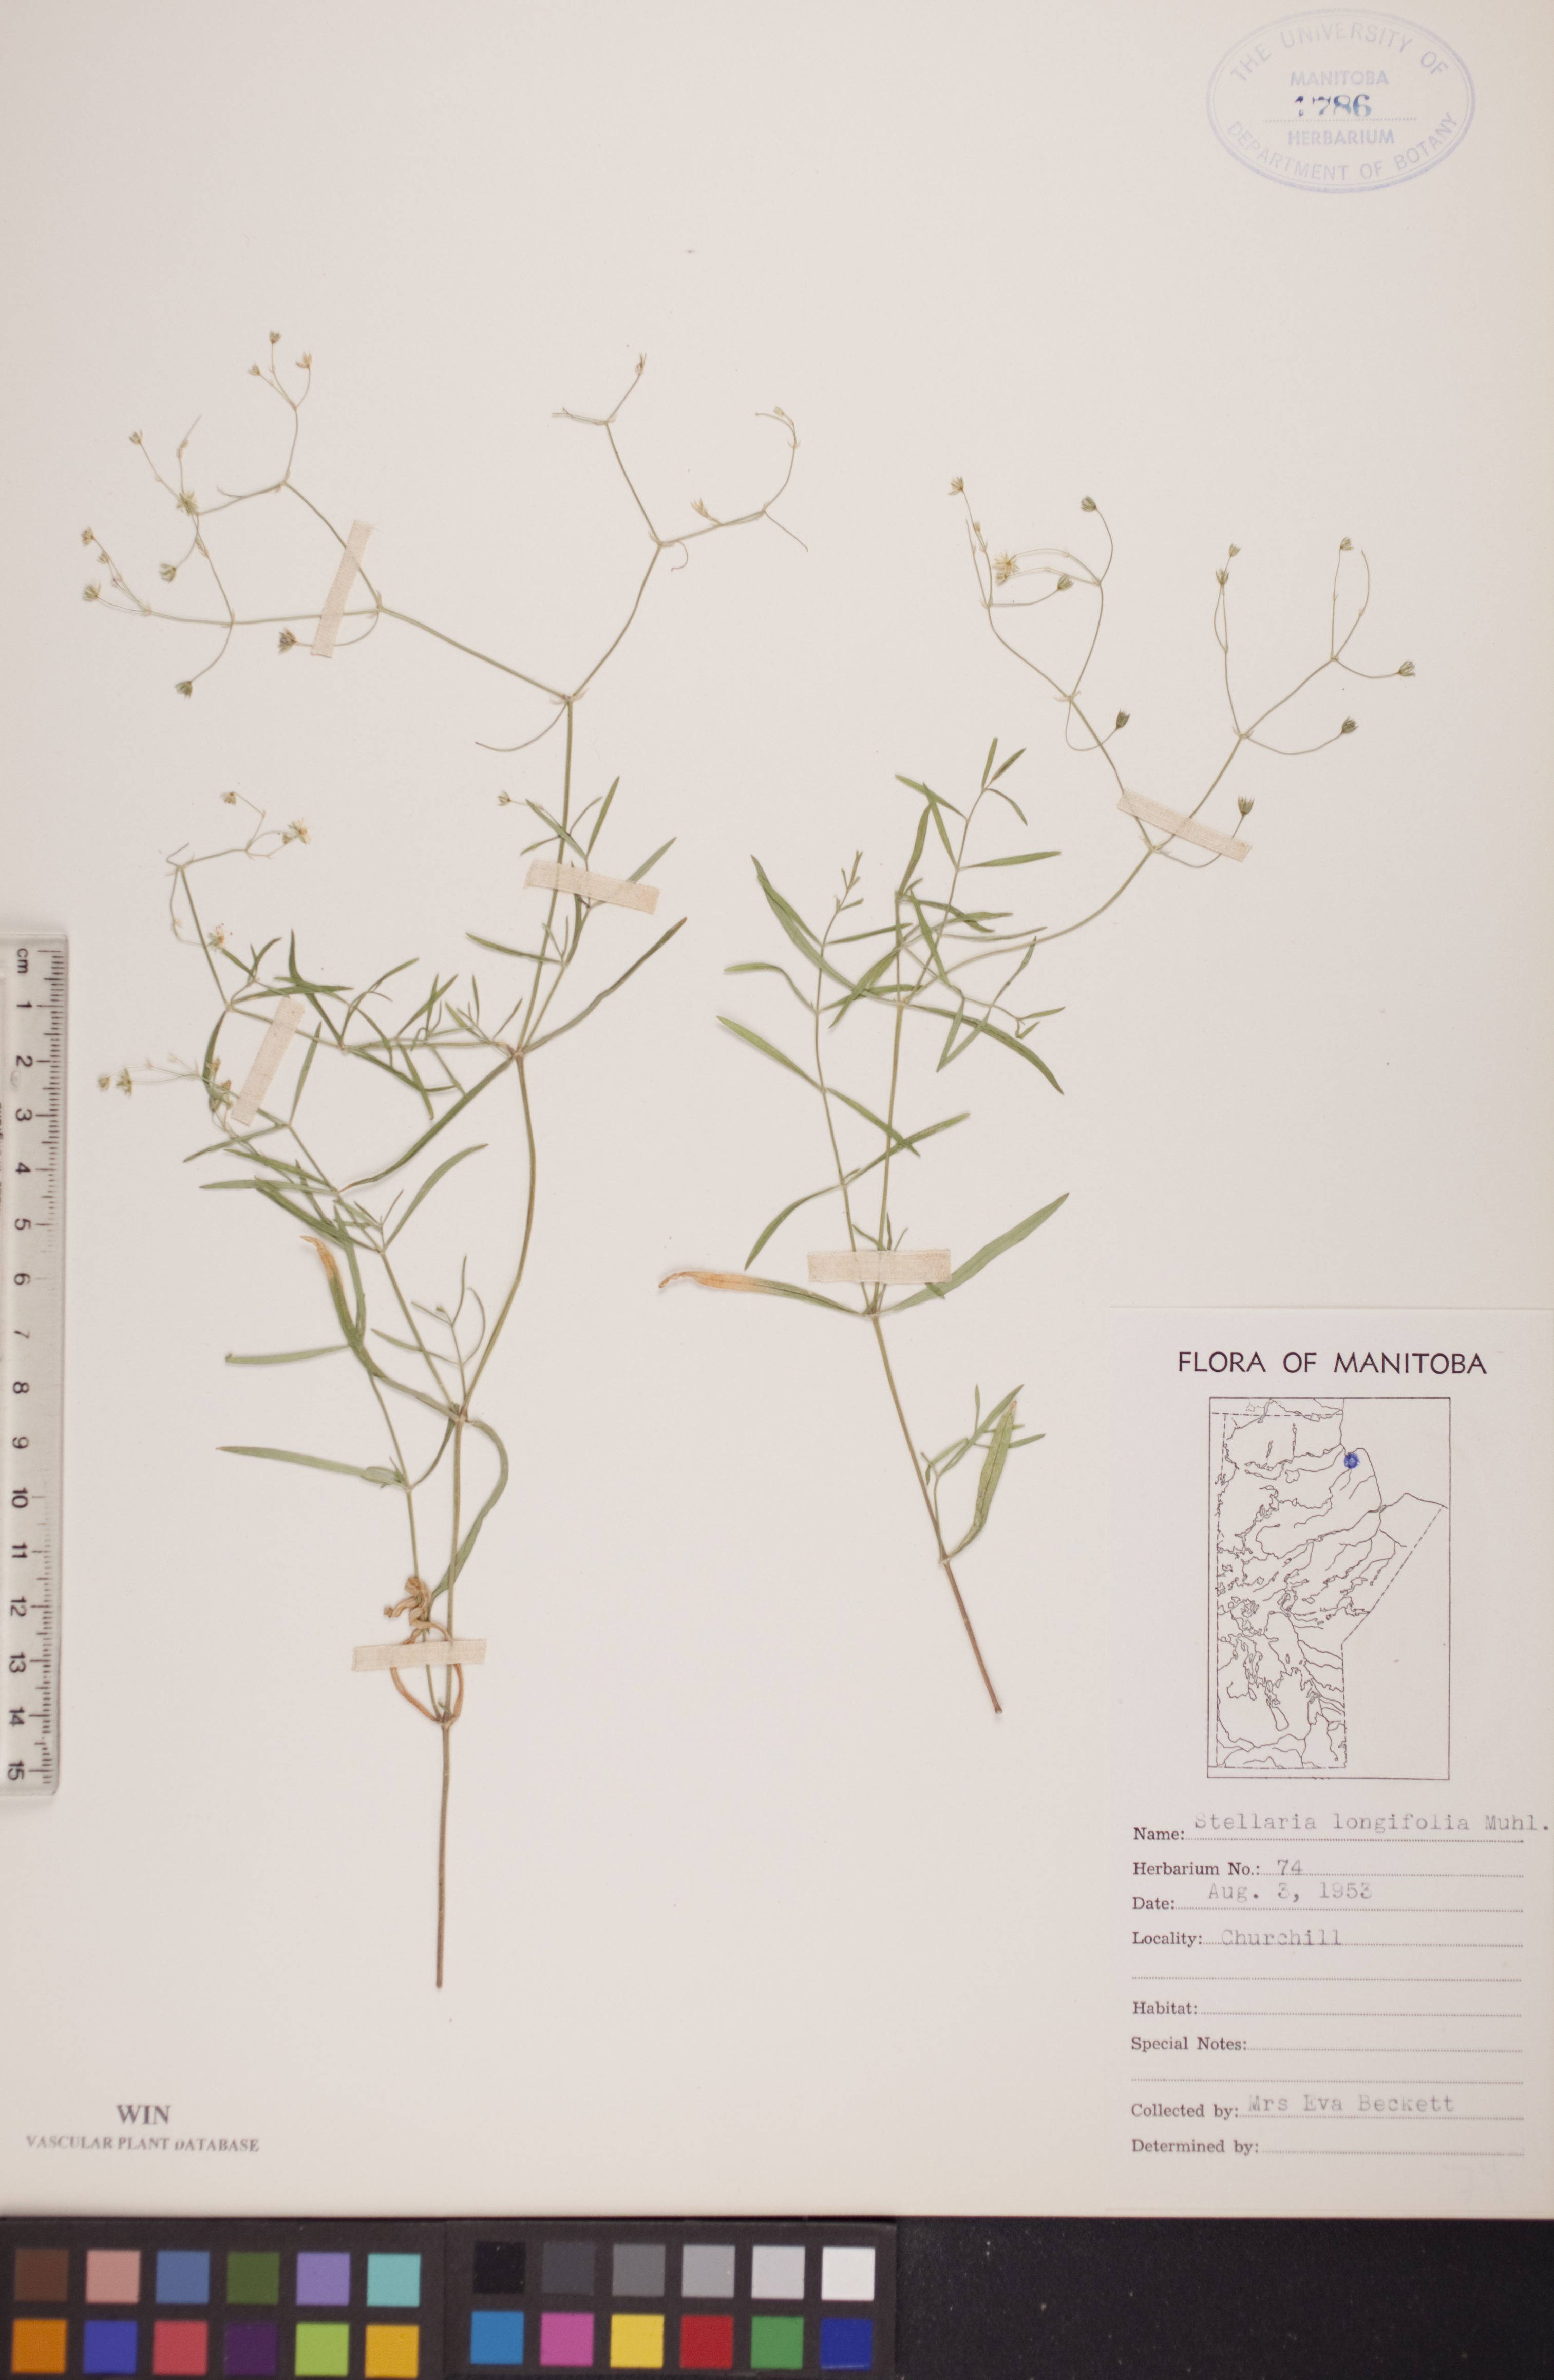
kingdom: Plantae
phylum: Tracheophyta
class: Magnoliopsida
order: Caryophyllales
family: Caryophyllaceae
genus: Stellaria
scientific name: Stellaria longifolia
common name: Long-leaved chickweed
